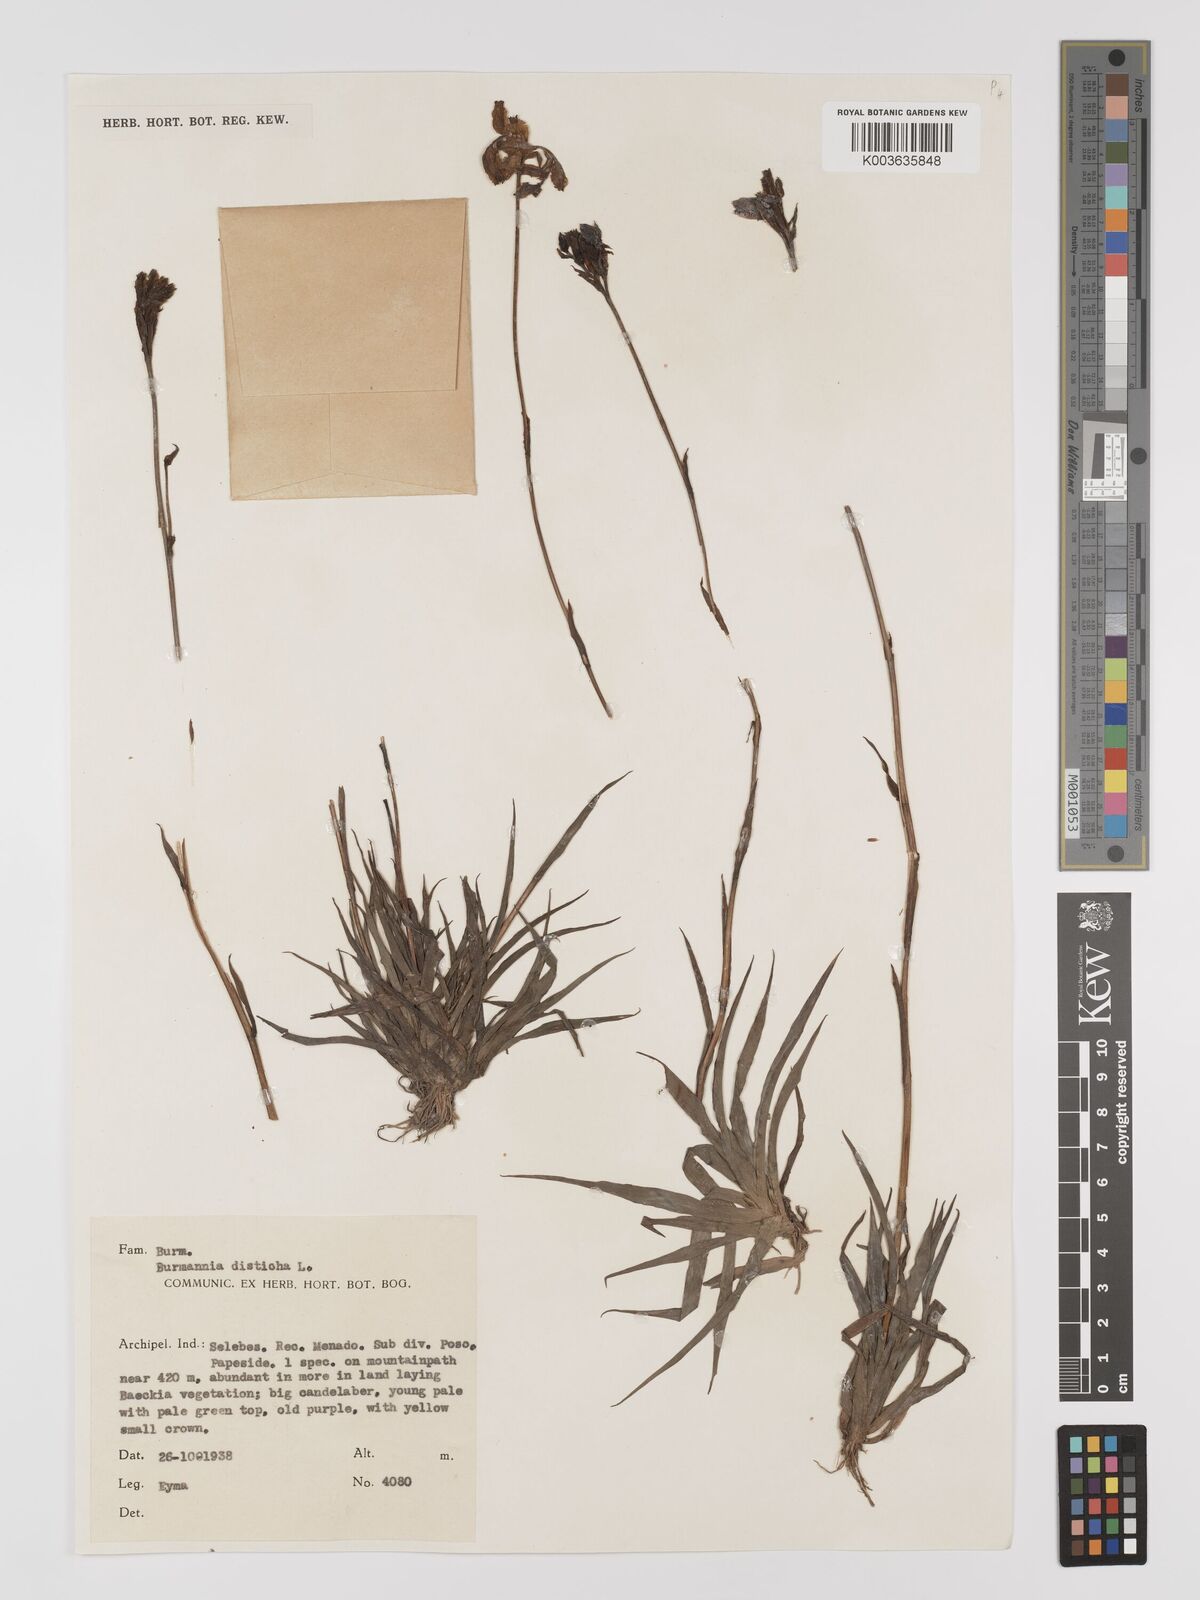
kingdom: Plantae
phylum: Tracheophyta
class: Liliopsida
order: Dioscoreales
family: Burmanniaceae
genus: Burmannia
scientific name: Burmannia disticha
